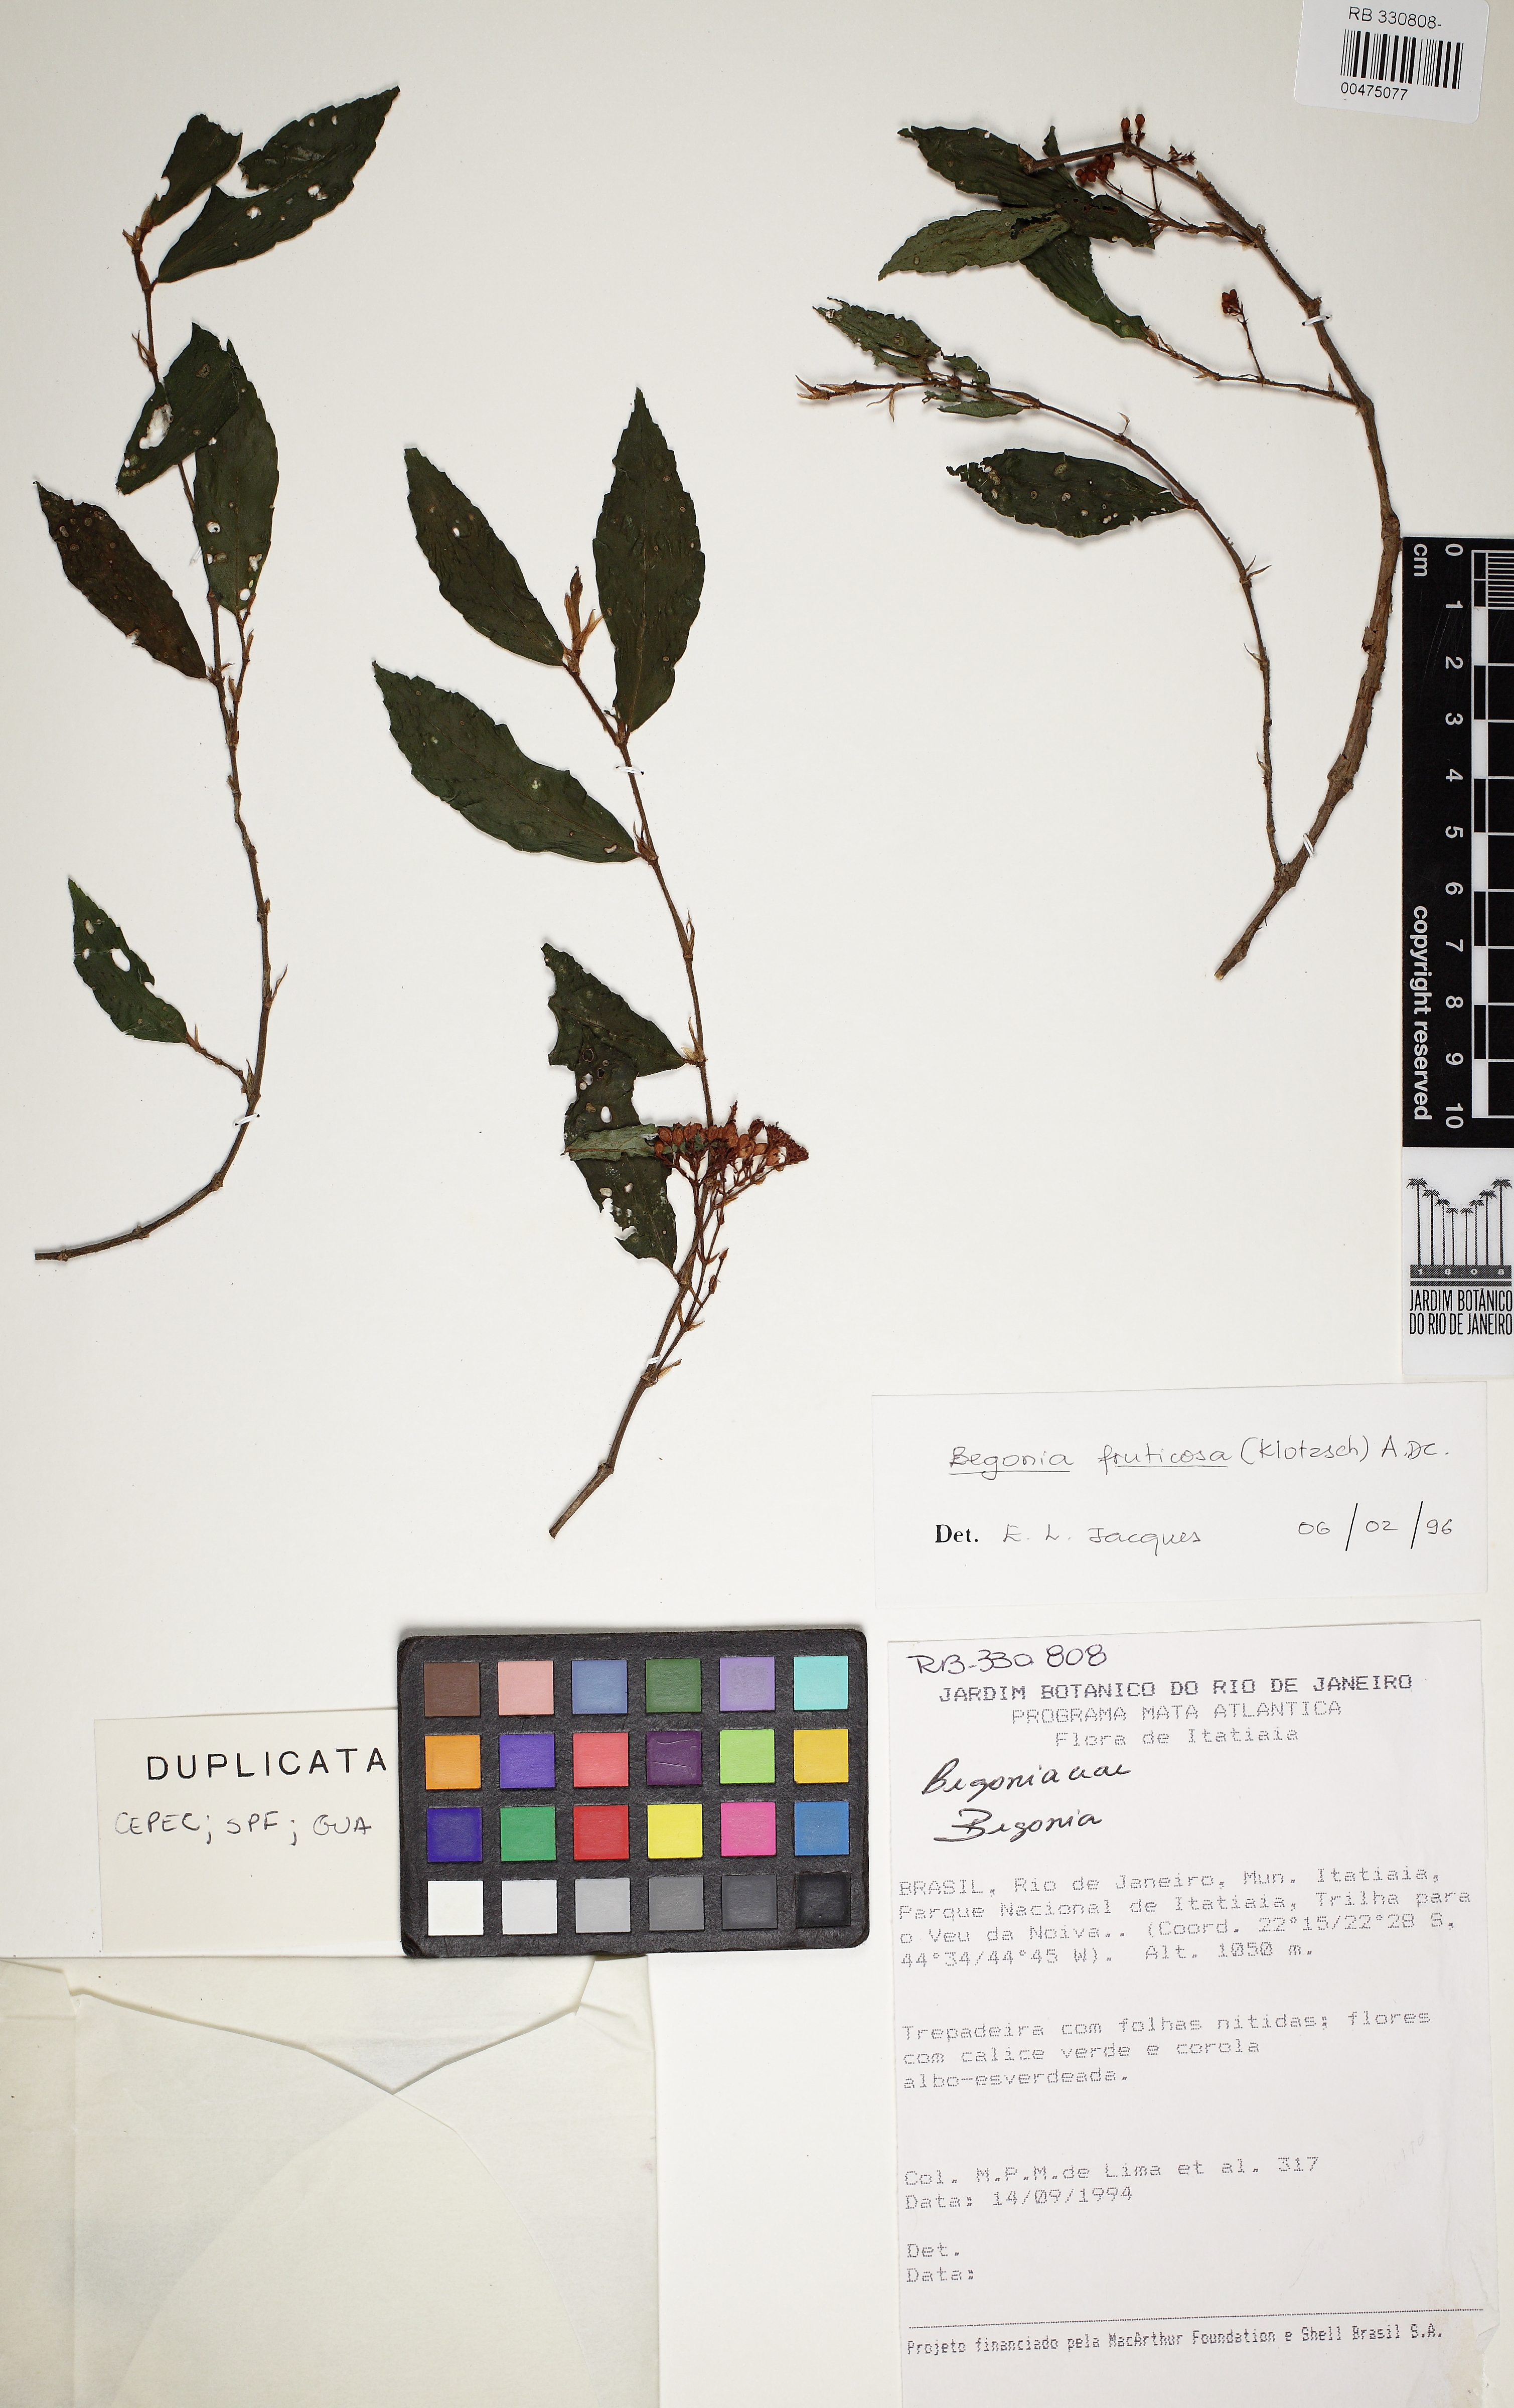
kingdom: Plantae
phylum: Tracheophyta
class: Magnoliopsida
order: Cucurbitales
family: Begoniaceae
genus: Begonia
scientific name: Begonia fruticosa
